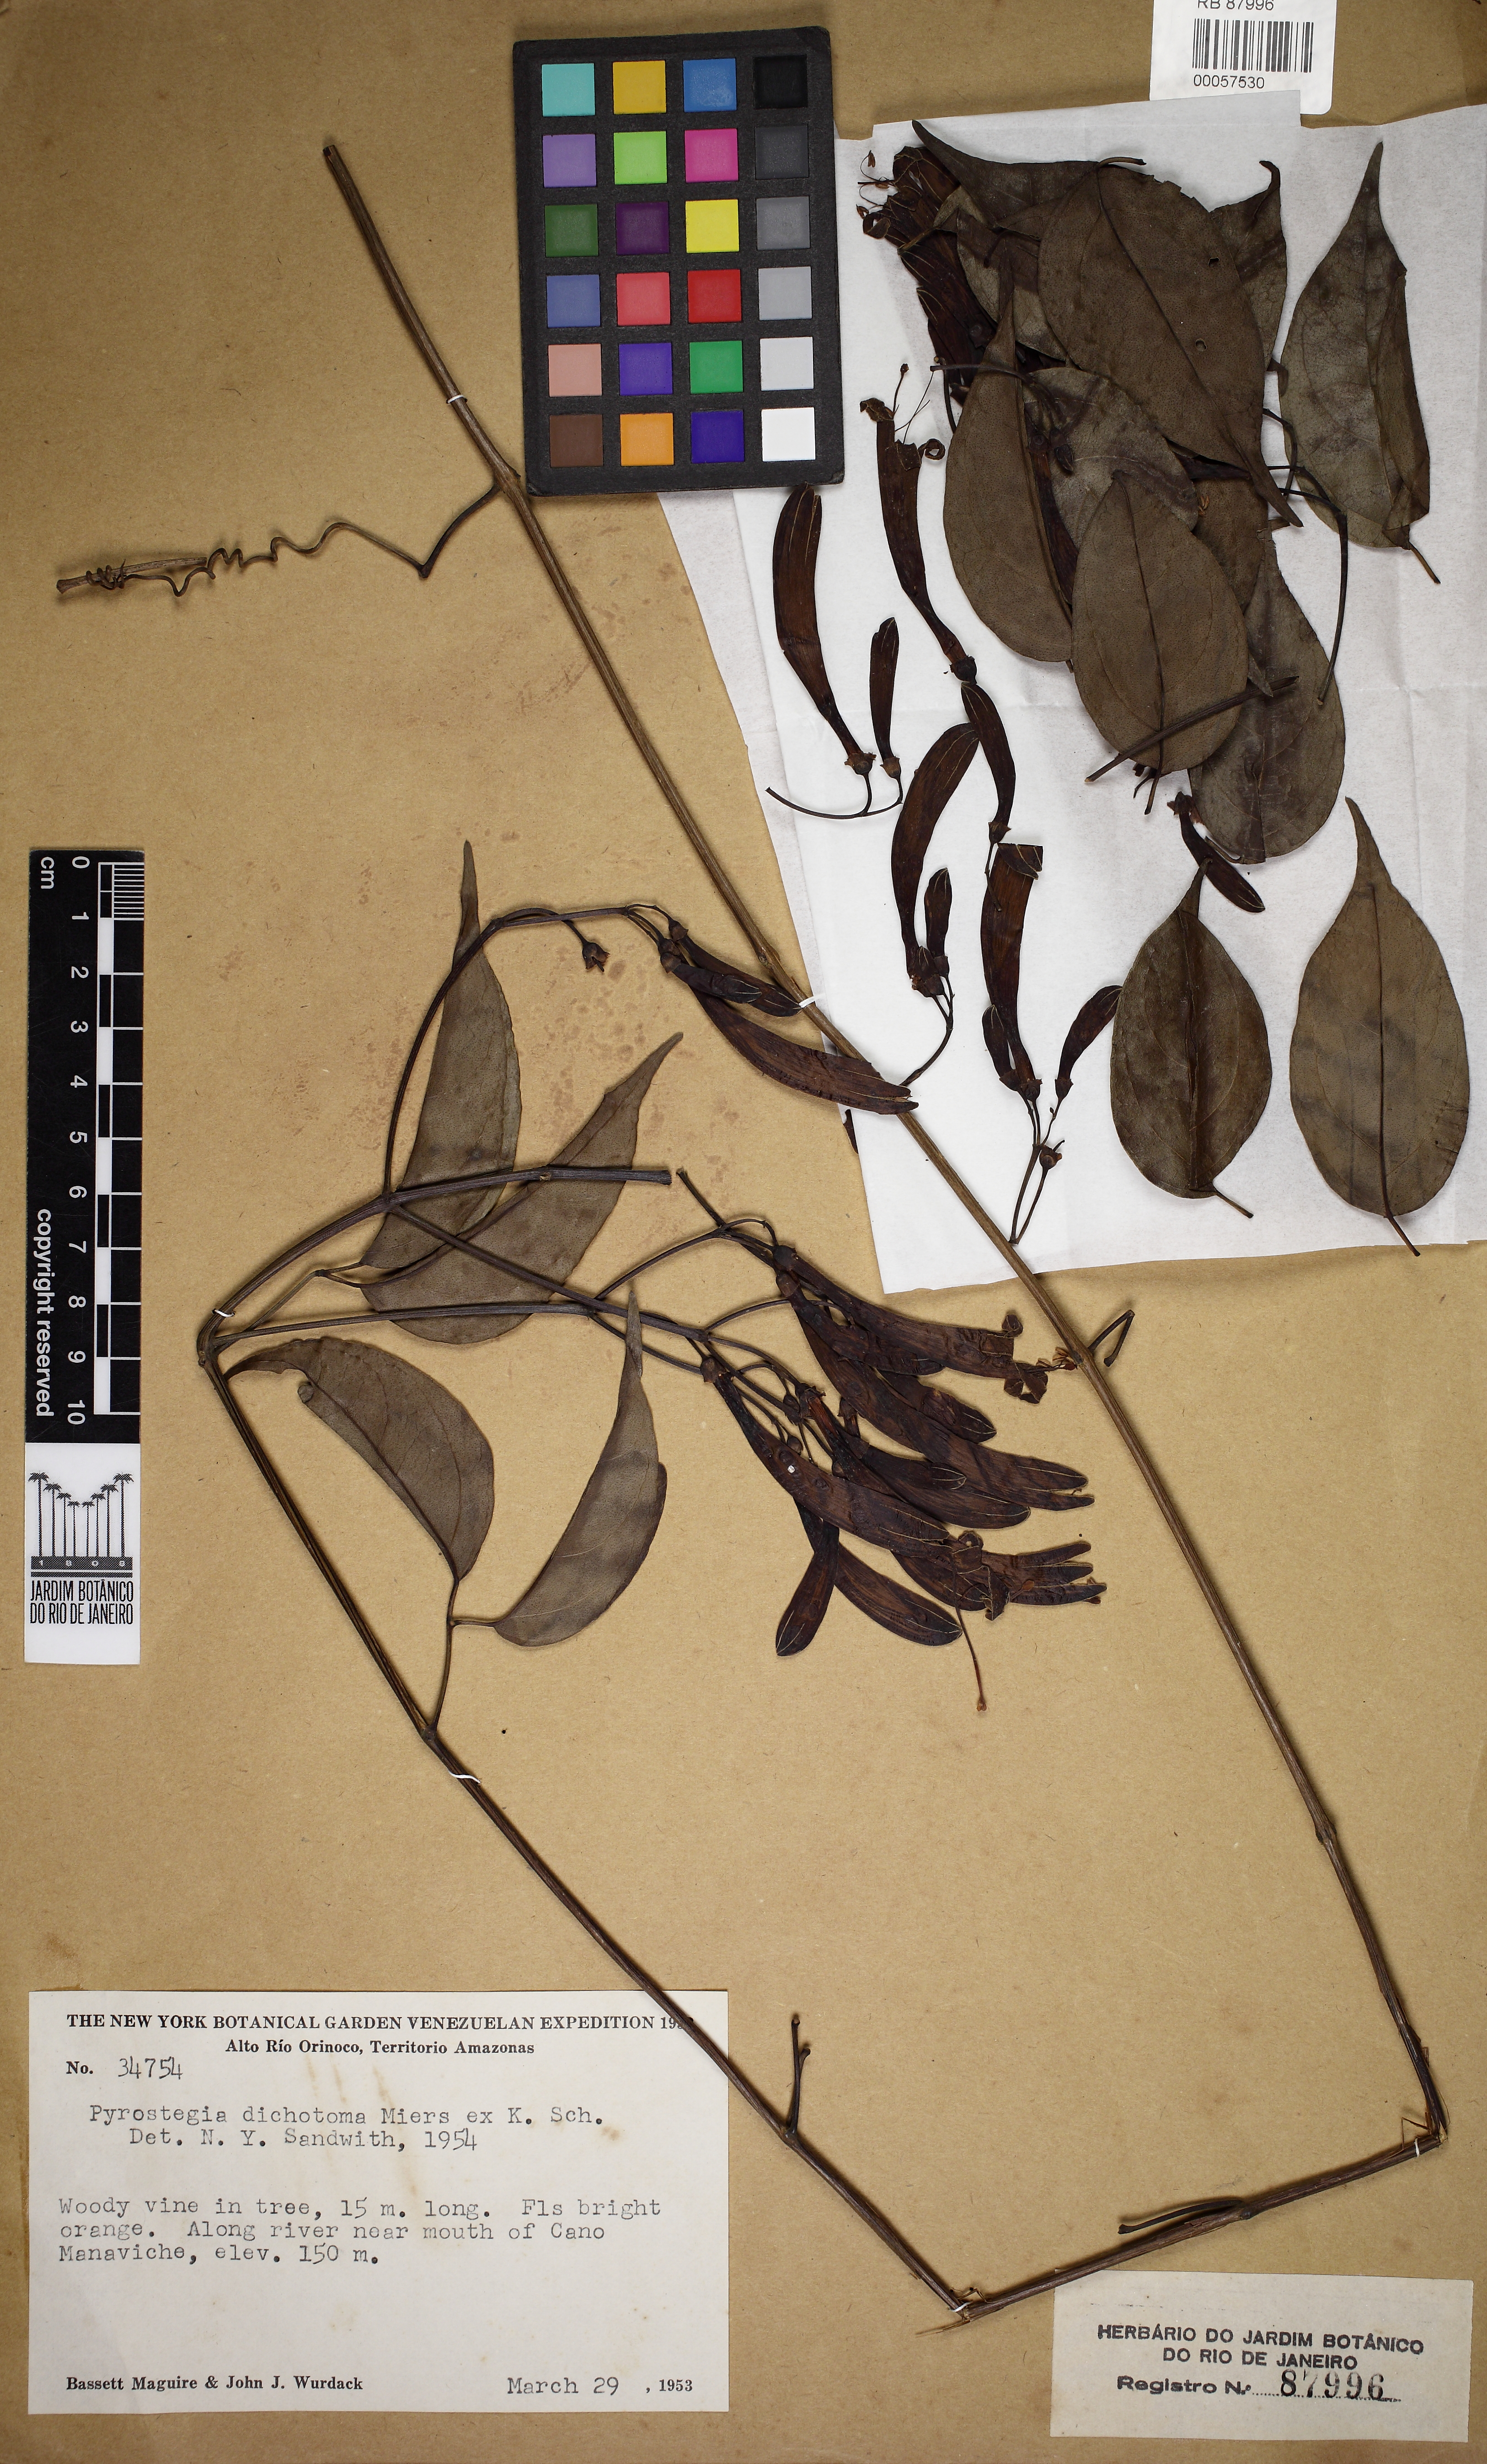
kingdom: Plantae
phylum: Tracheophyta
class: Magnoliopsida
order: Lamiales
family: Bignoniaceae
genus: Pyrostegia
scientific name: Pyrostegia venusta
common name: Flamevine
